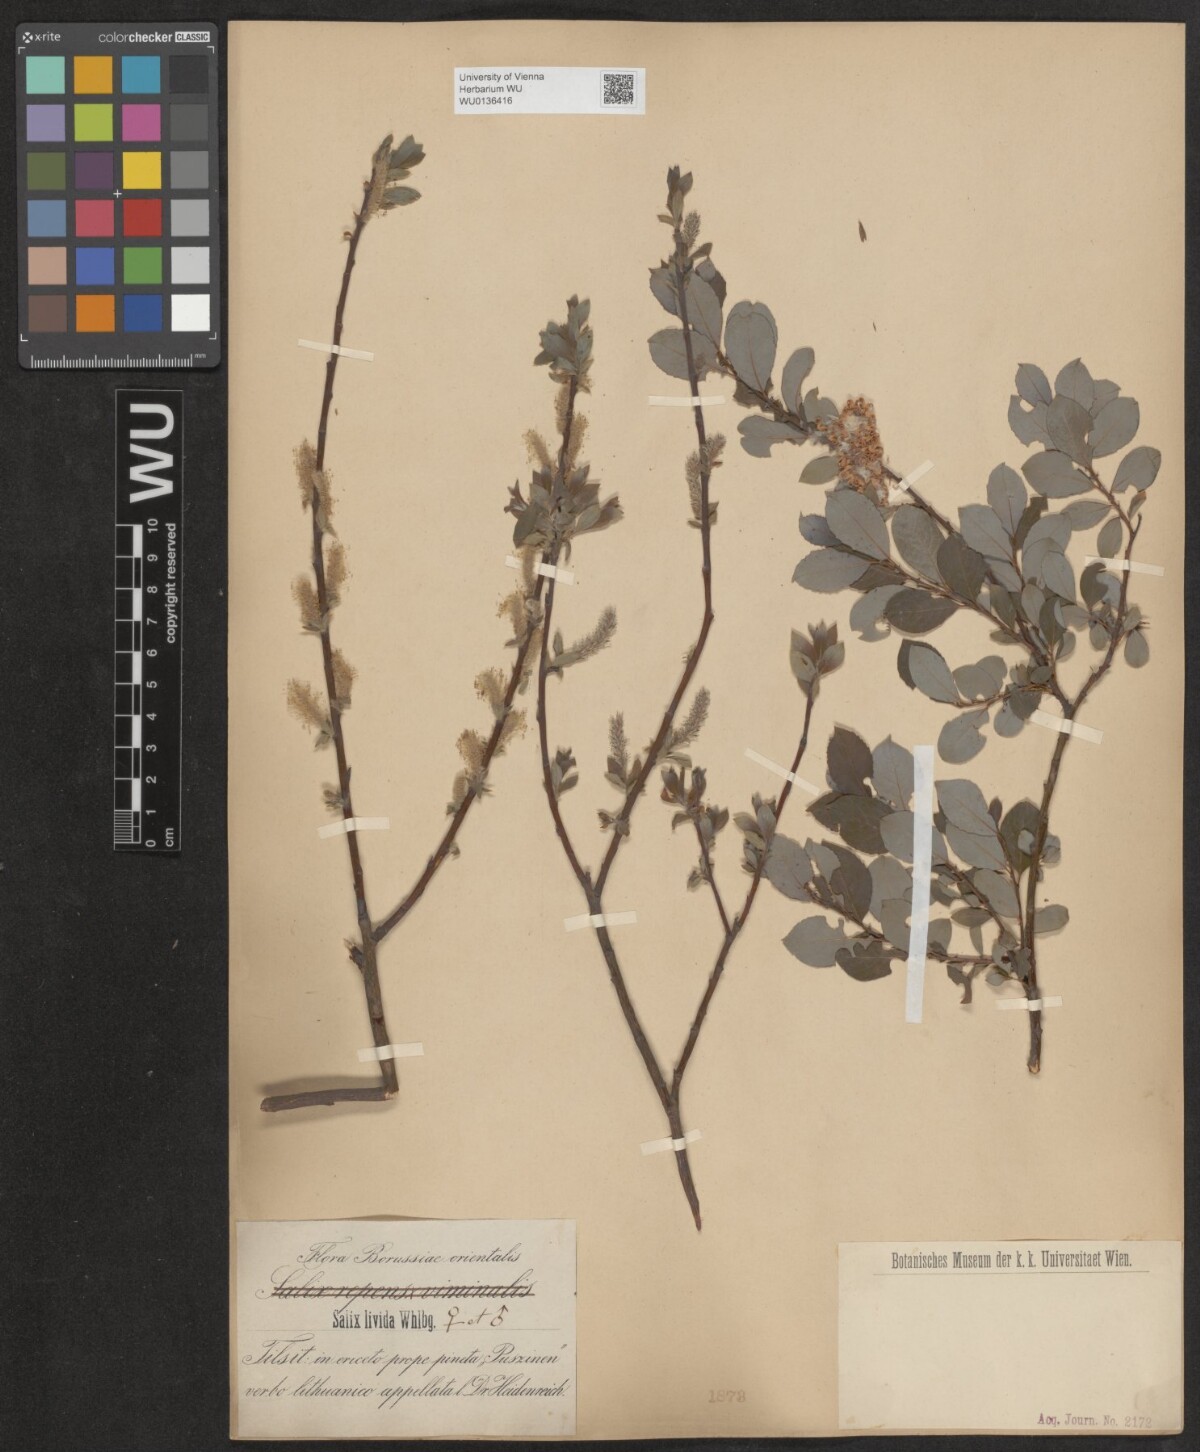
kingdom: Plantae
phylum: Tracheophyta
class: Magnoliopsida
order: Malpighiales
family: Salicaceae
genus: Salix
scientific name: Salix lanata
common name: Woolly willow
